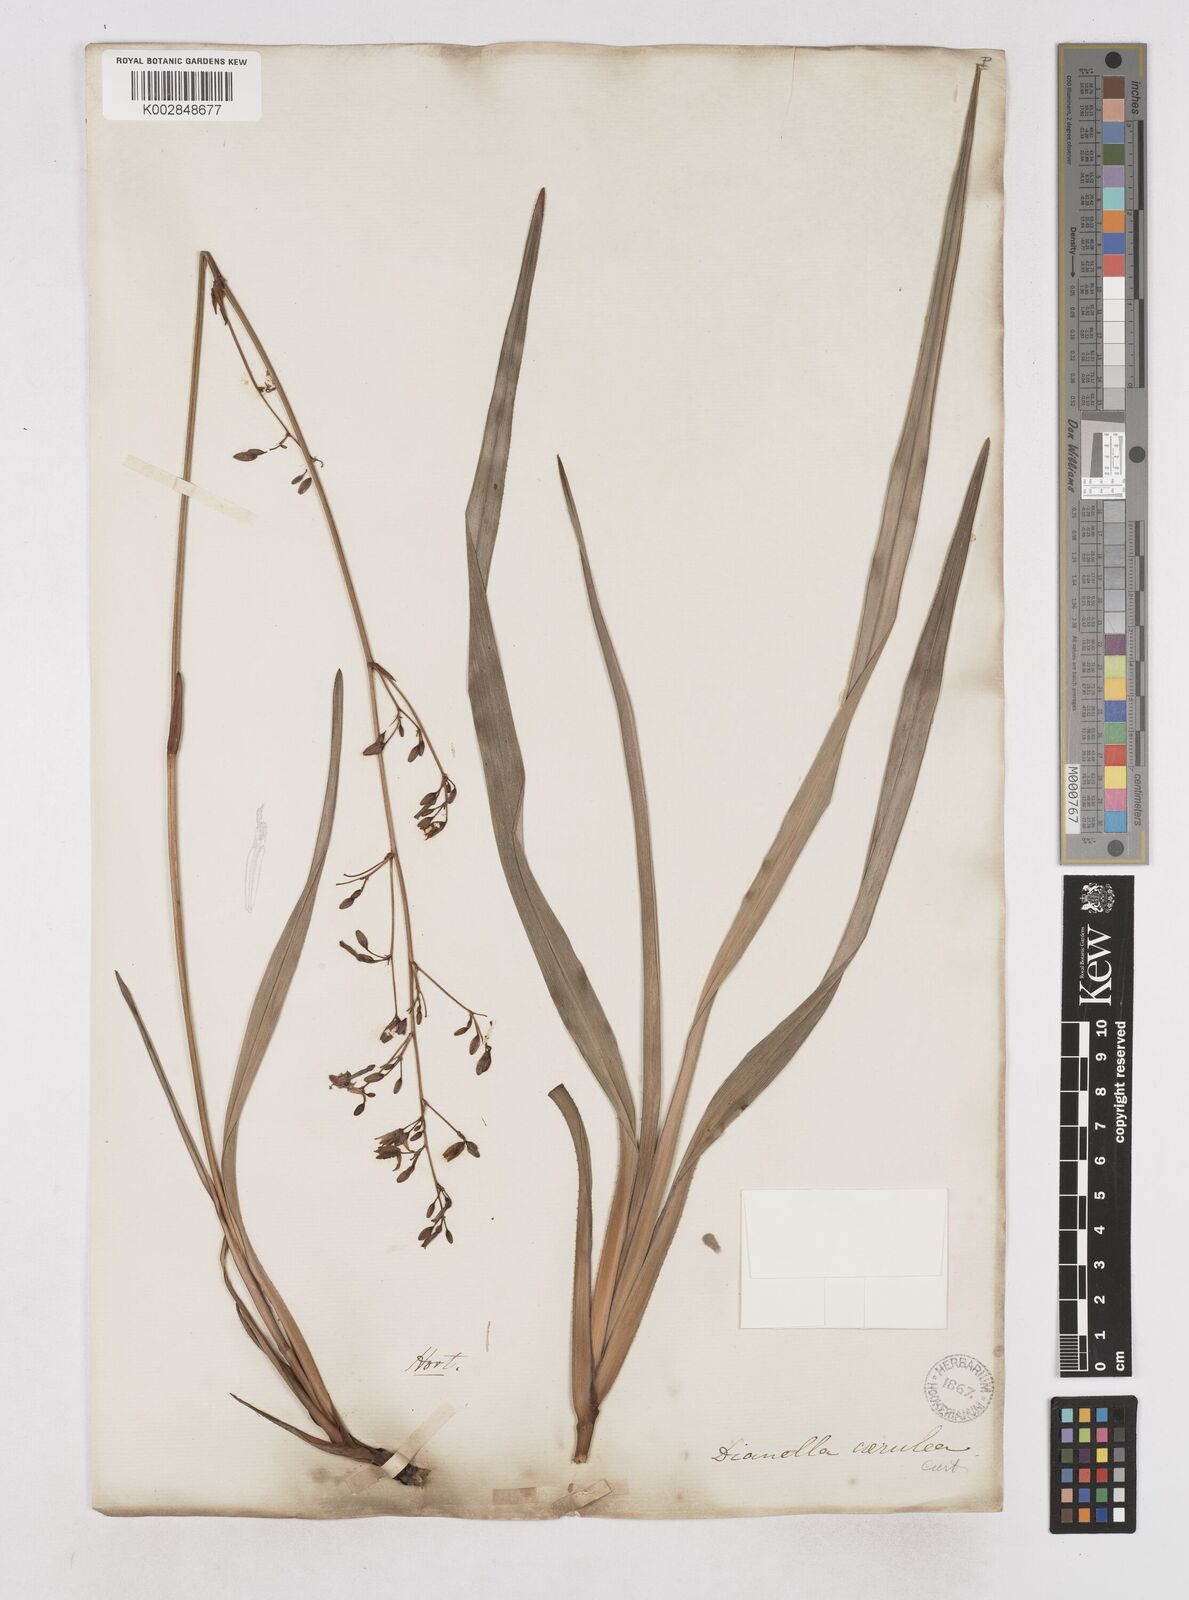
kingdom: Plantae
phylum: Tracheophyta
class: Liliopsida
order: Asparagales
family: Asphodelaceae
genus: Dianella
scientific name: Dianella caerulea
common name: Blue flax-lily
